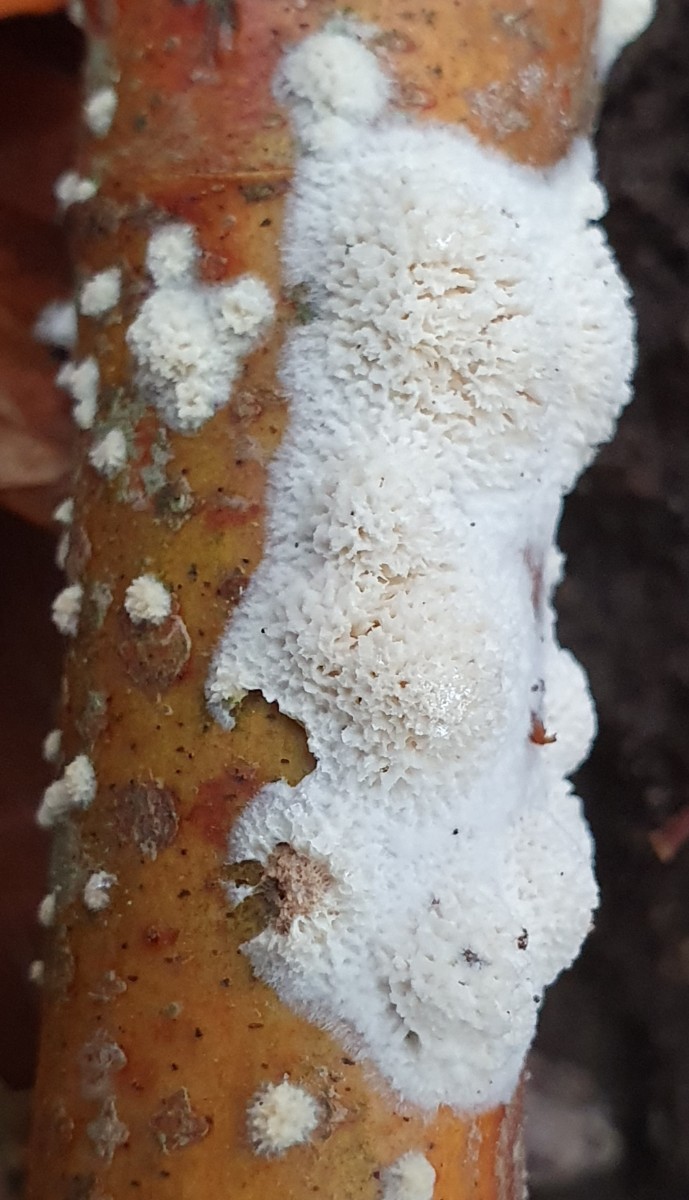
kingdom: Fungi
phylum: Basidiomycota
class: Agaricomycetes
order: Hymenochaetales
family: Schizoporaceae
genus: Xylodon
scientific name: Xylodon
